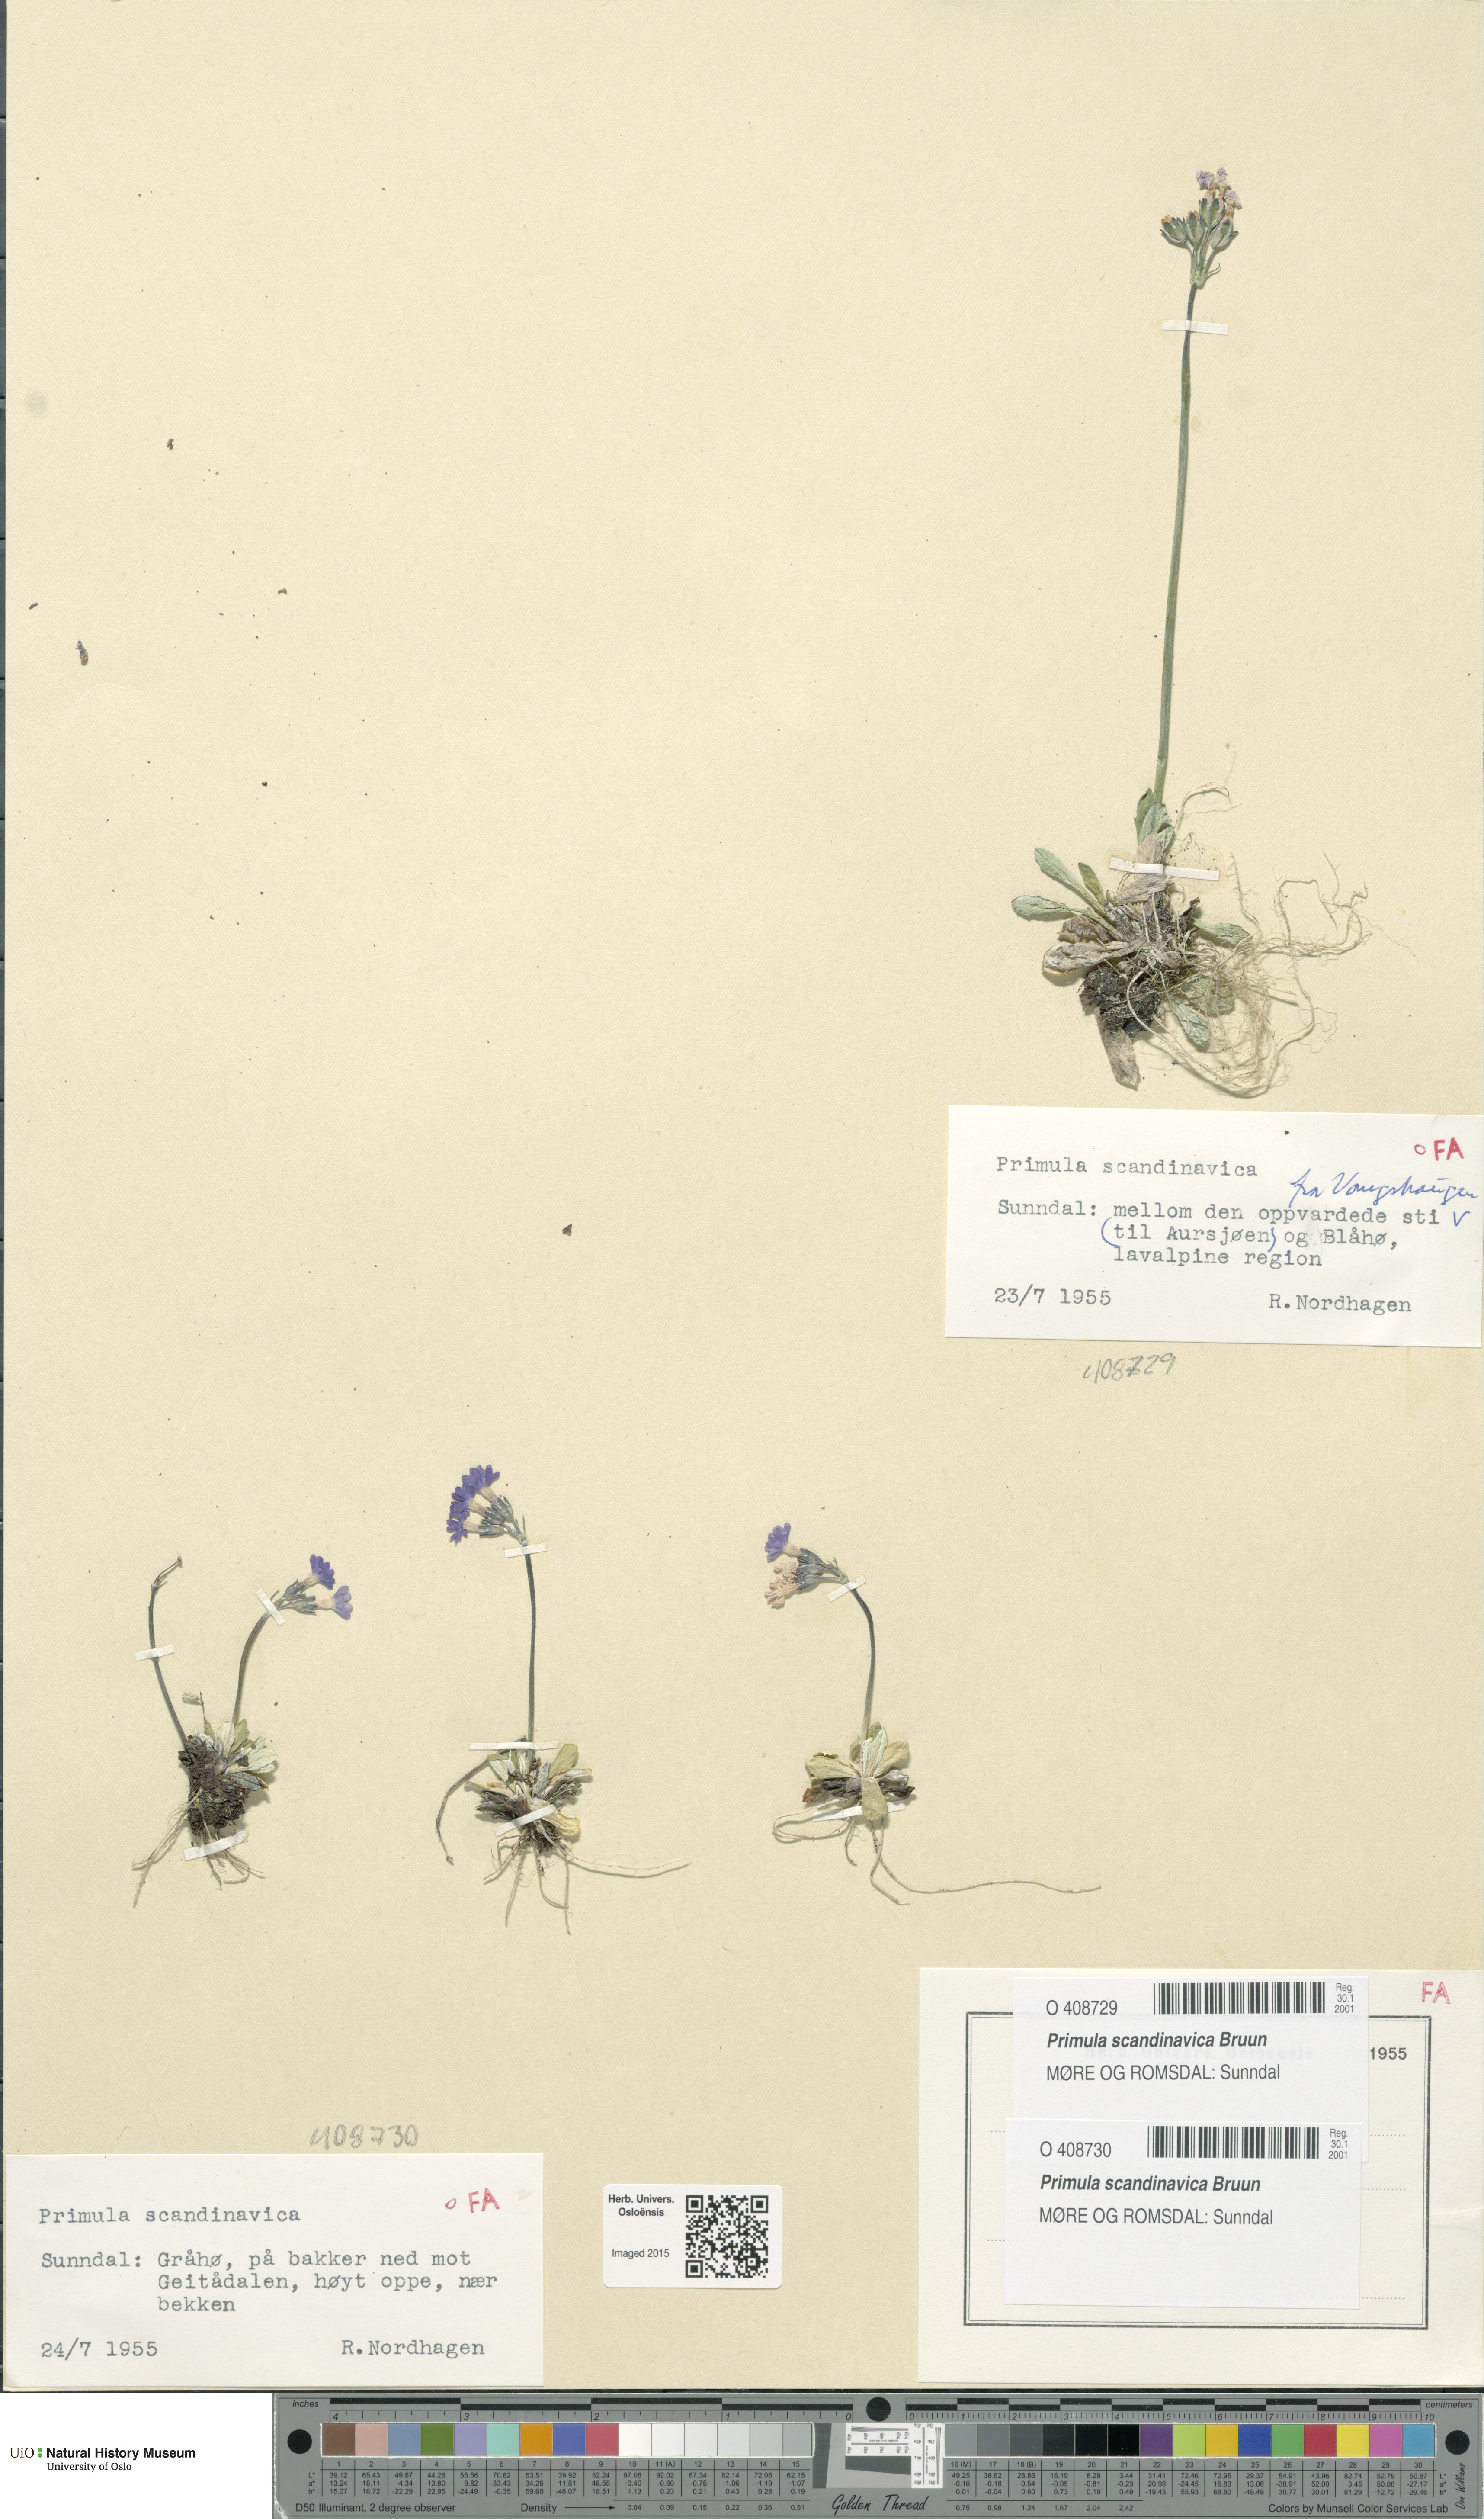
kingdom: Plantae
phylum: Tracheophyta
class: Magnoliopsida
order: Ericales
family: Primulaceae
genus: Primula
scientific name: Primula scandinavica
